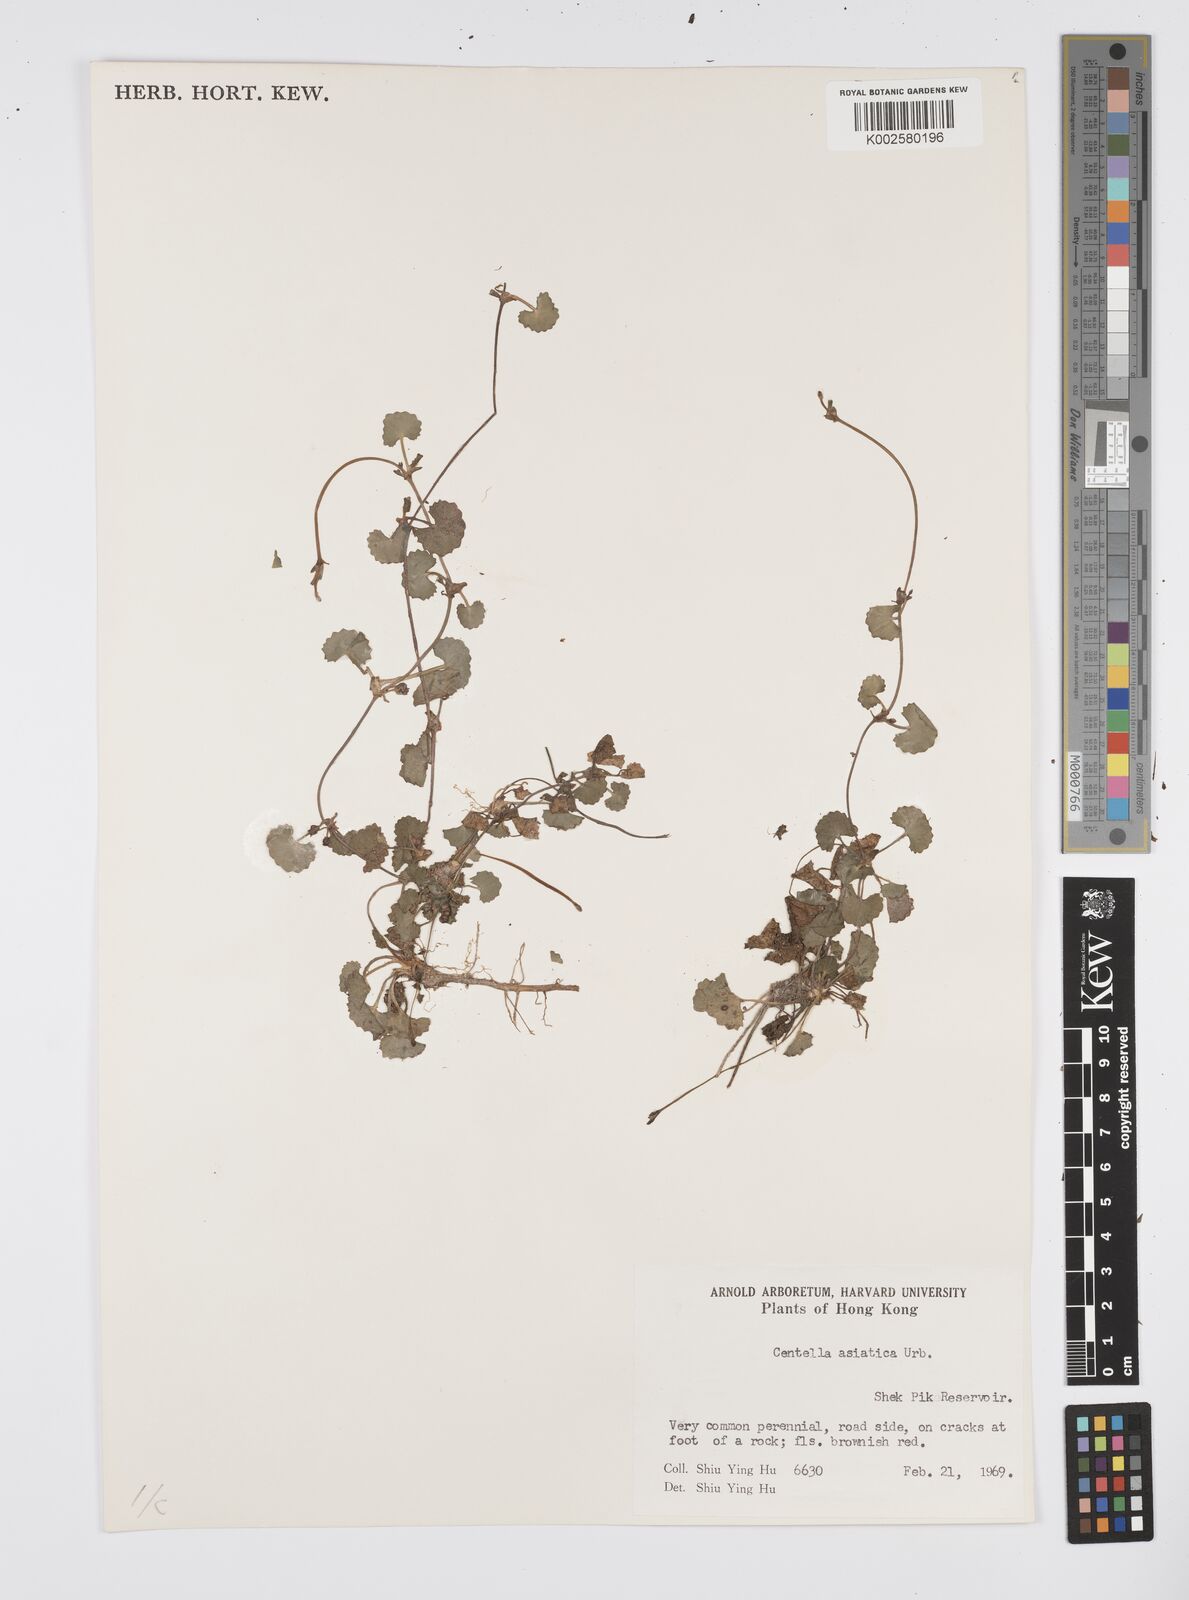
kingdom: Plantae
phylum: Tracheophyta
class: Magnoliopsida
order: Apiales
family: Apiaceae
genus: Centella
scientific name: Centella
